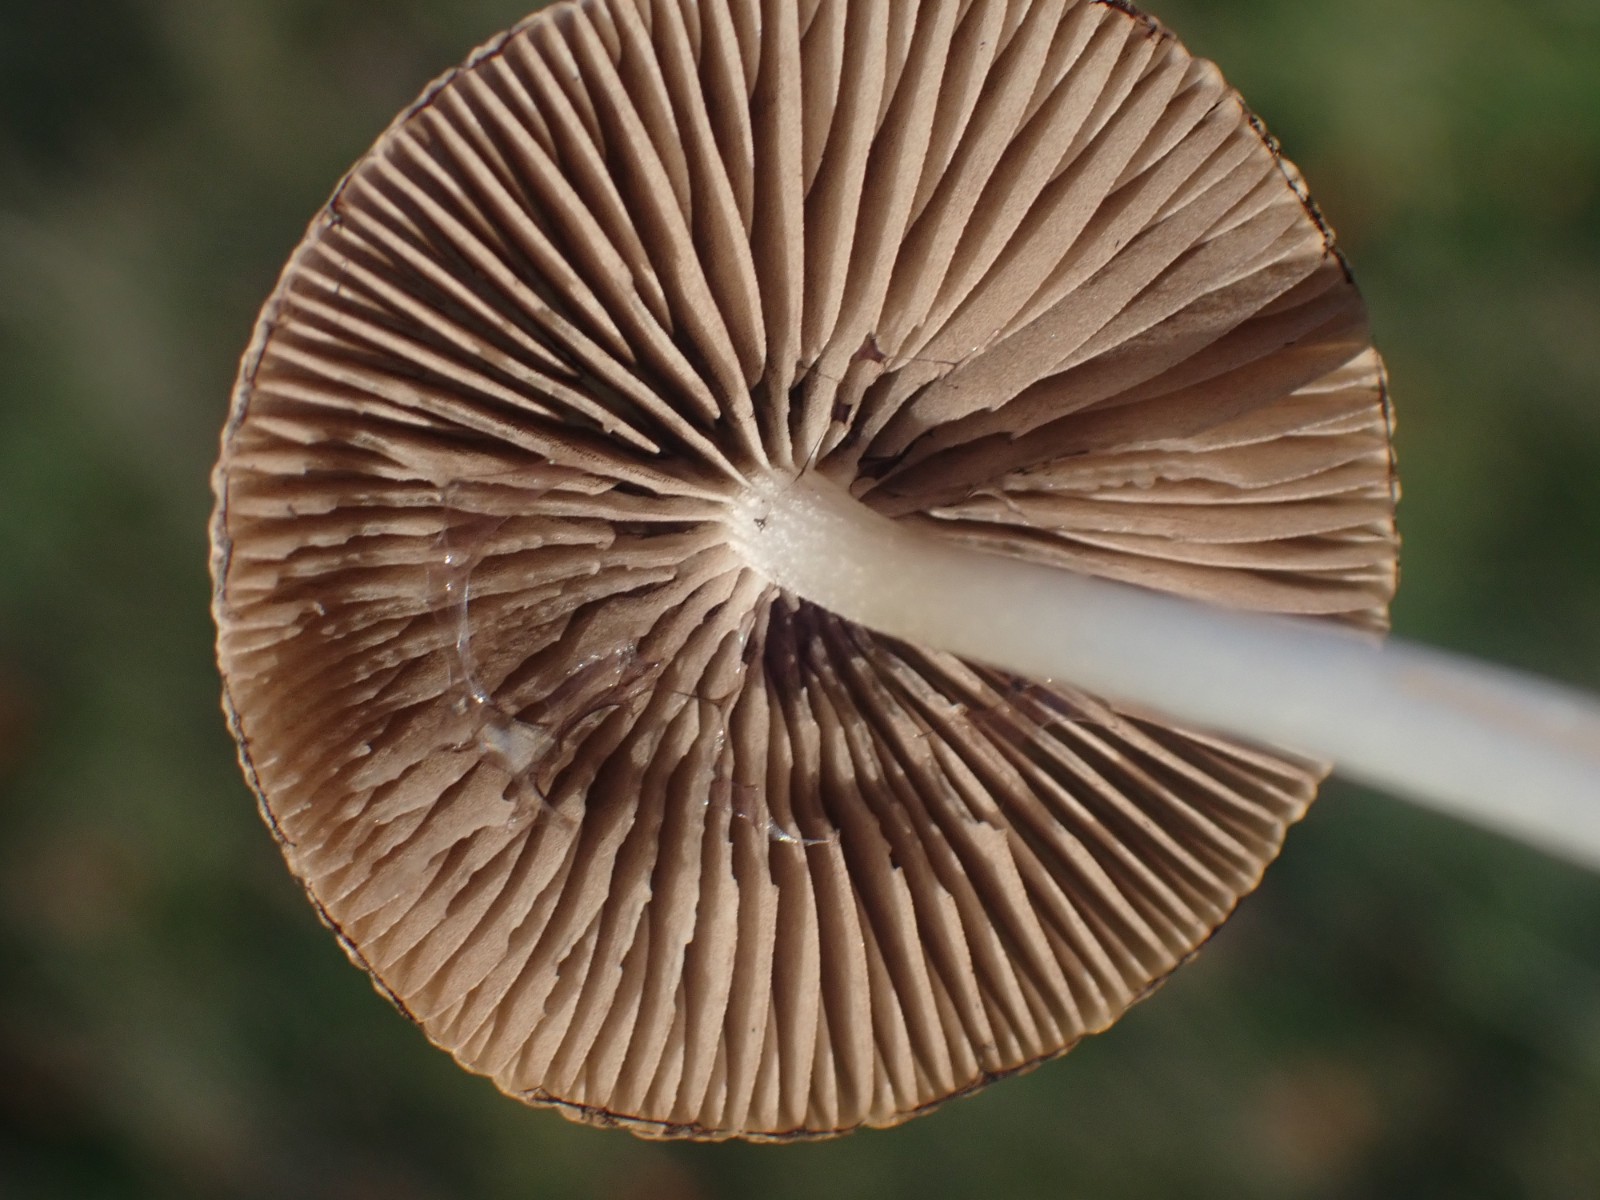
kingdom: Fungi
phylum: Basidiomycota
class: Agaricomycetes
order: Agaricales
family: Psathyrellaceae
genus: Psathyrella
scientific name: Psathyrella
